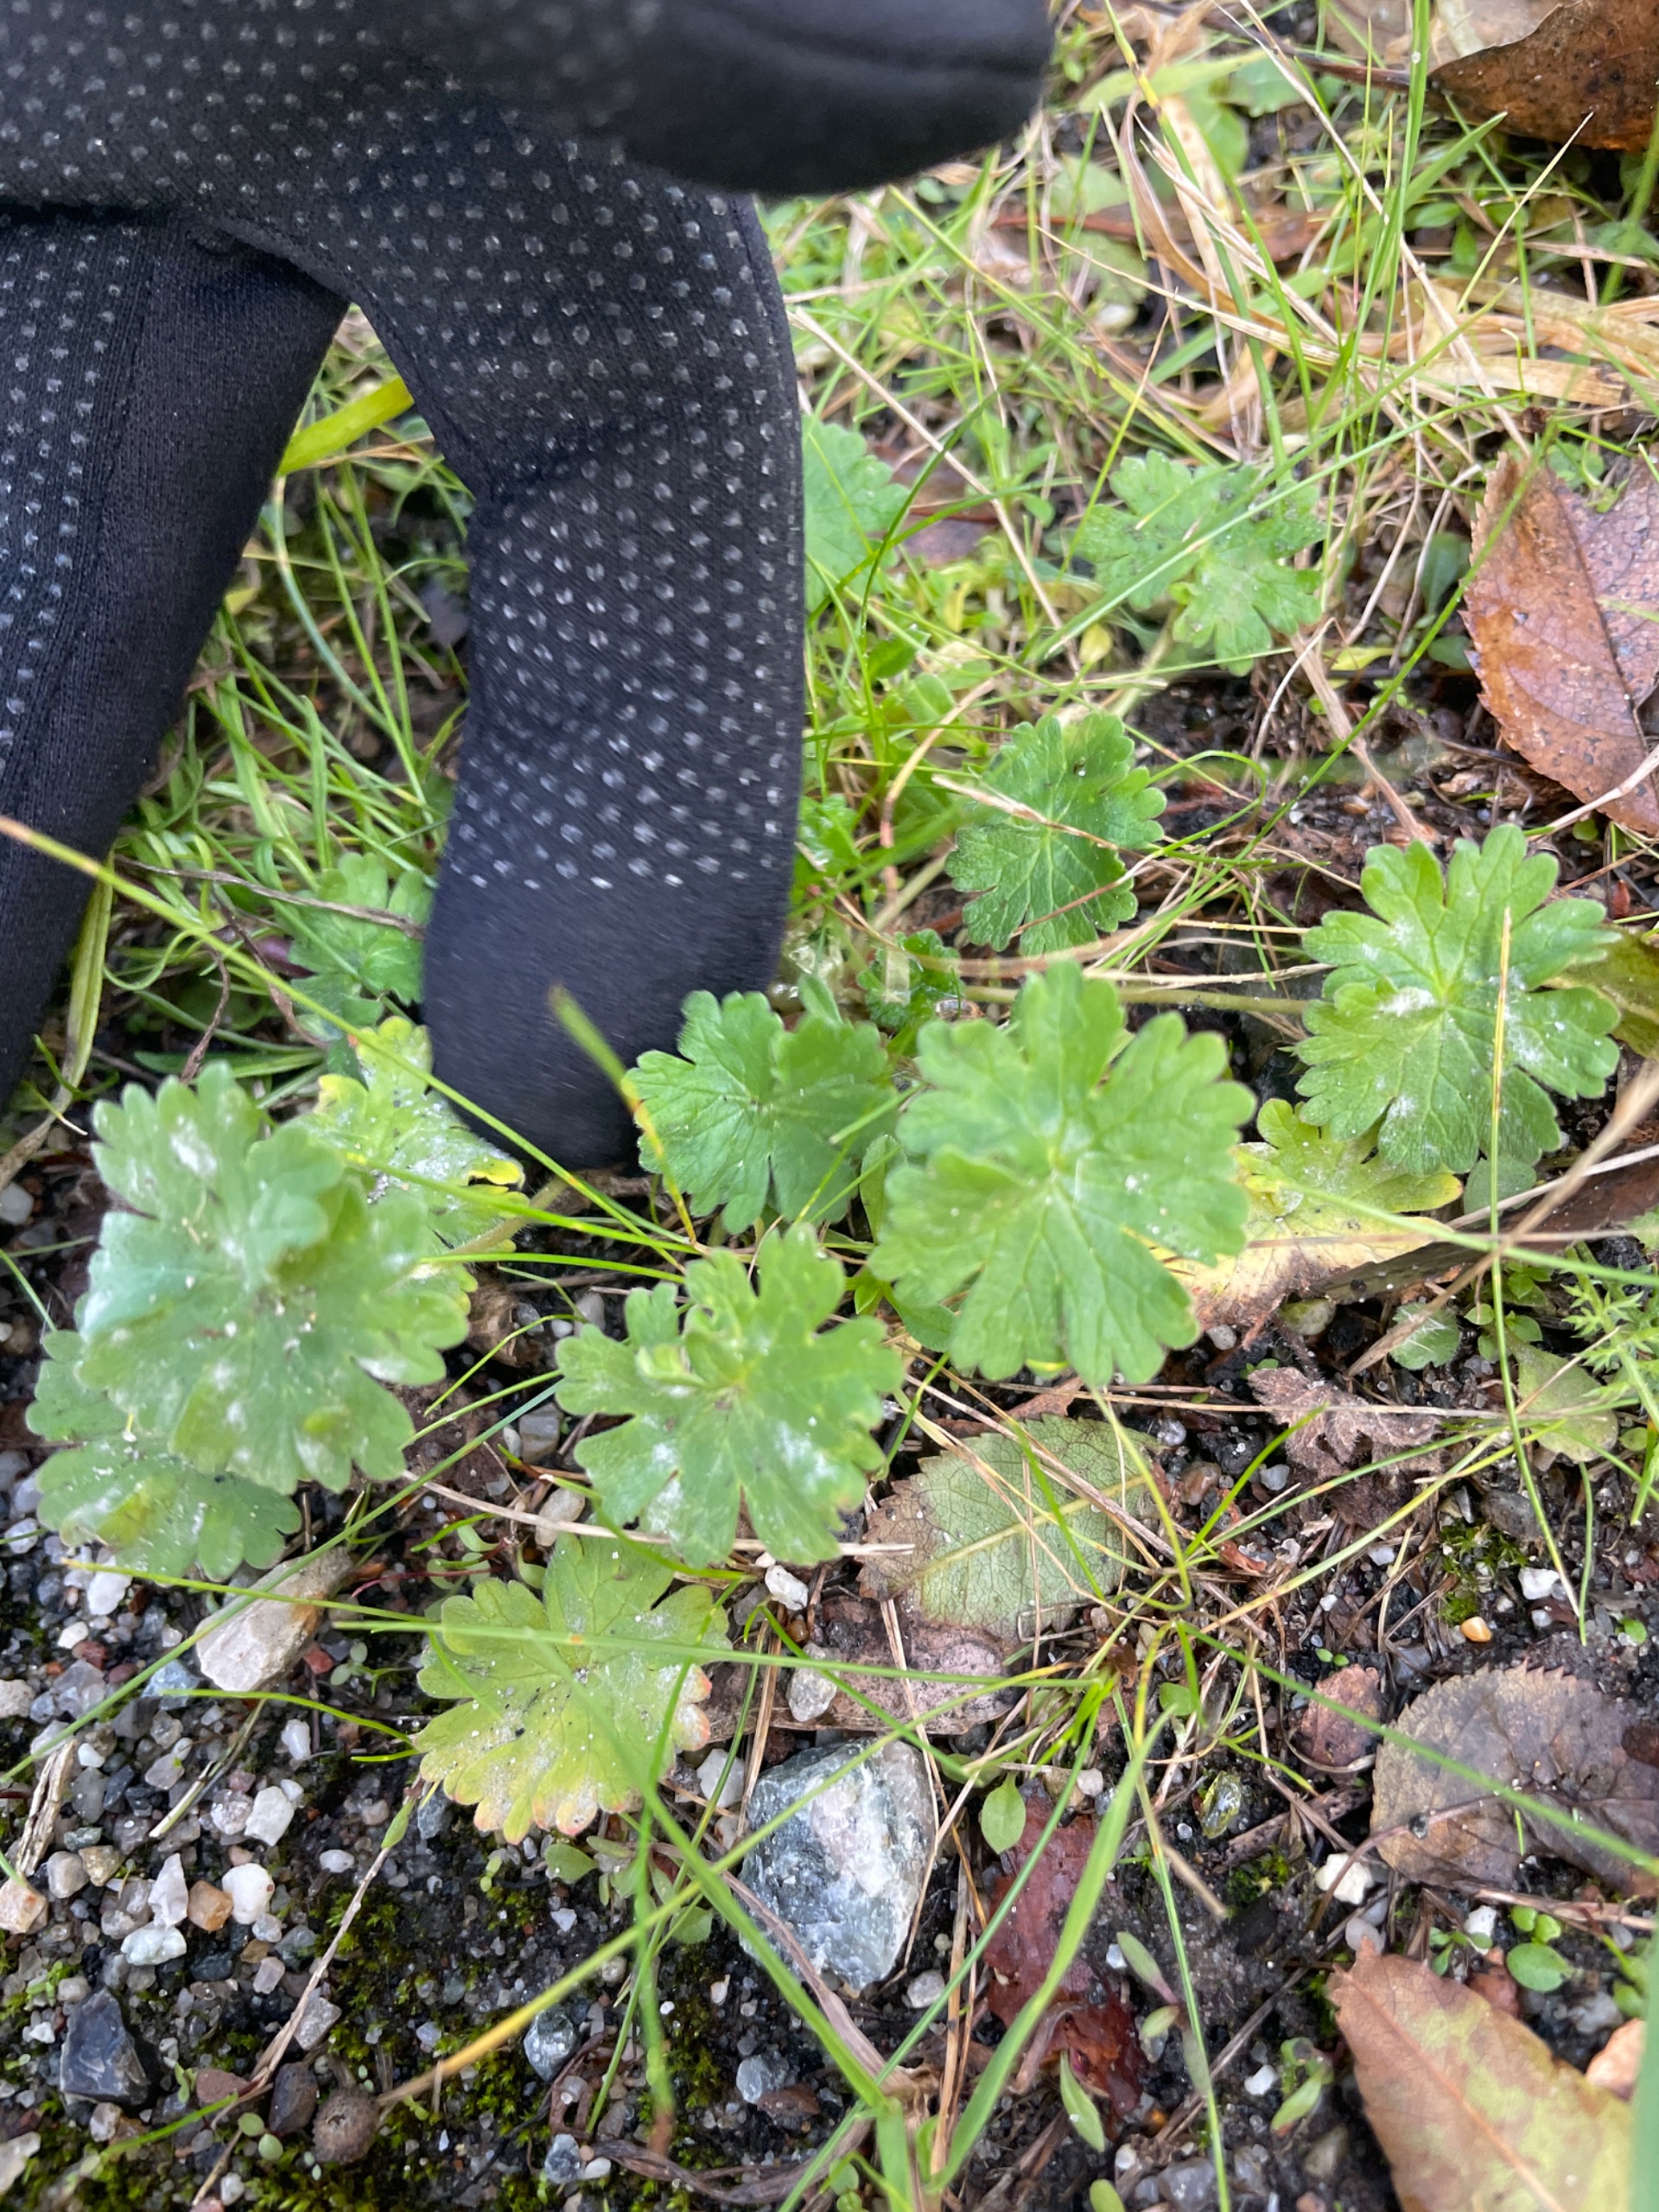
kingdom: Plantae
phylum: Tracheophyta
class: Magnoliopsida
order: Geraniales
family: Geraniaceae
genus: Geranium
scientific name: Geranium molle
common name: Blød storkenæb
